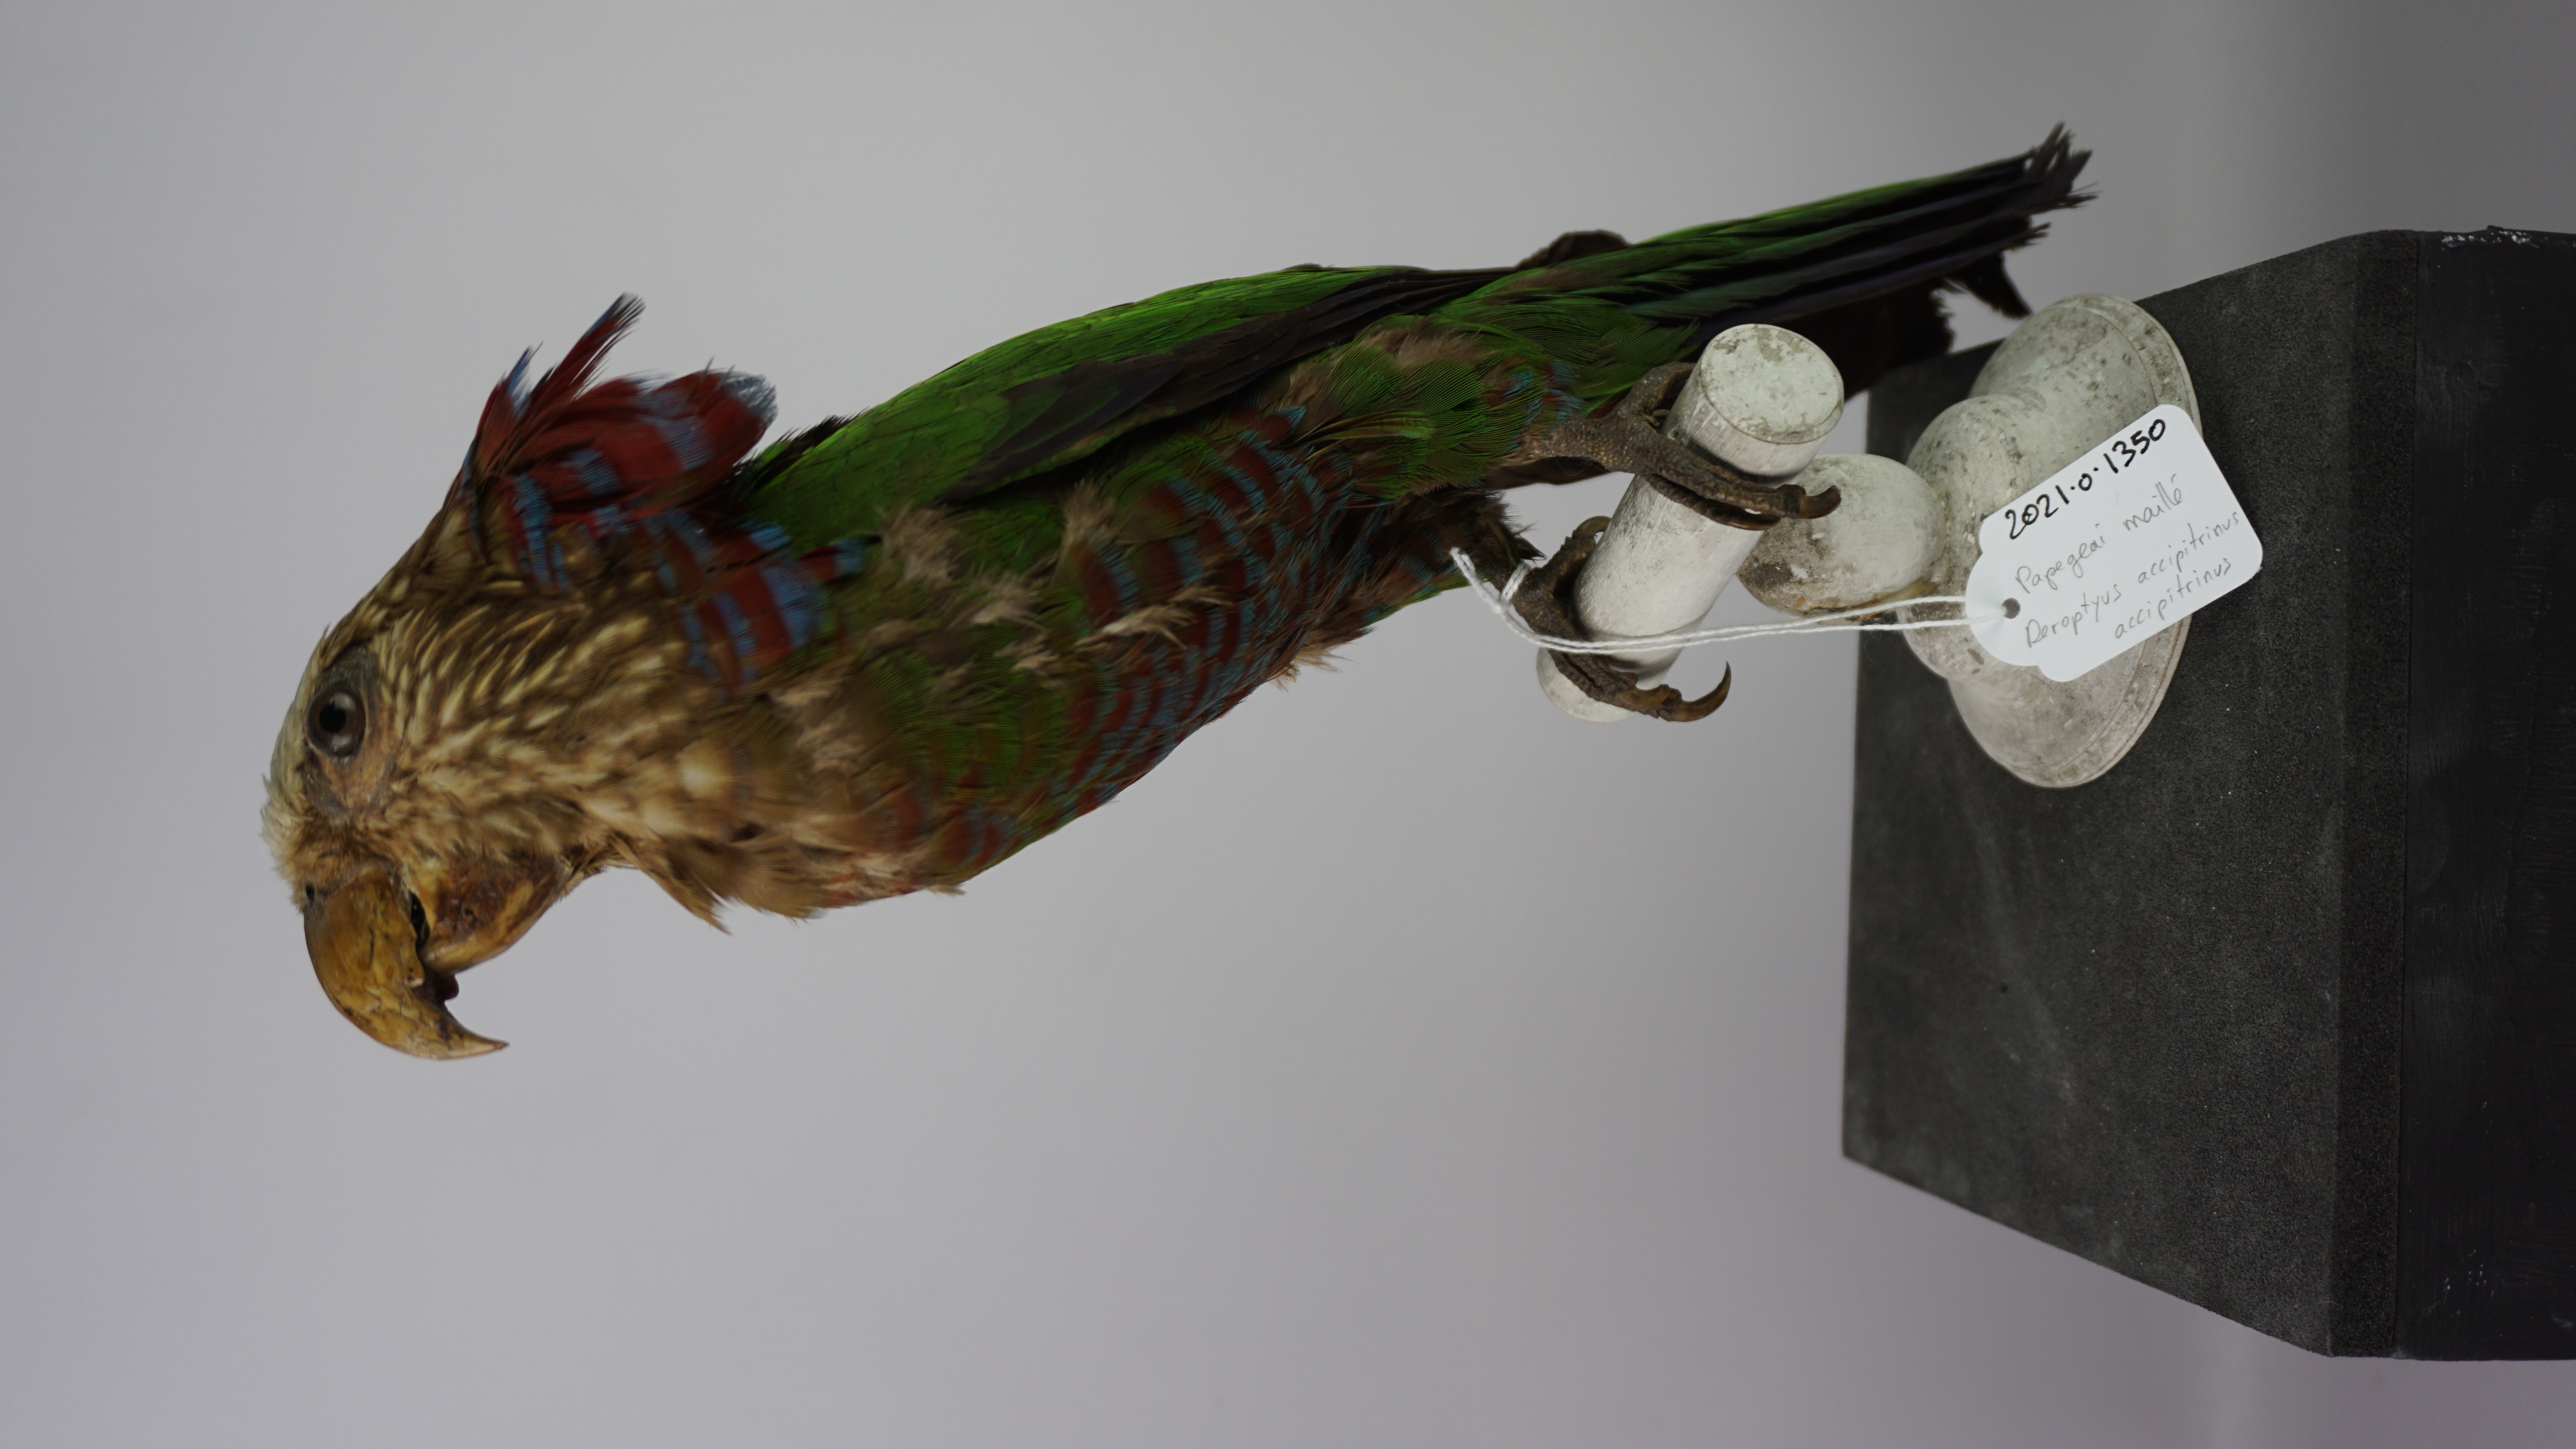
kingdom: Animalia
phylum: Chordata
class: Aves
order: Psittaciformes
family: Psittacidae
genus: Deroptyus
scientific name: Deroptyus accipitrinus
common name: Red-fan parrot
